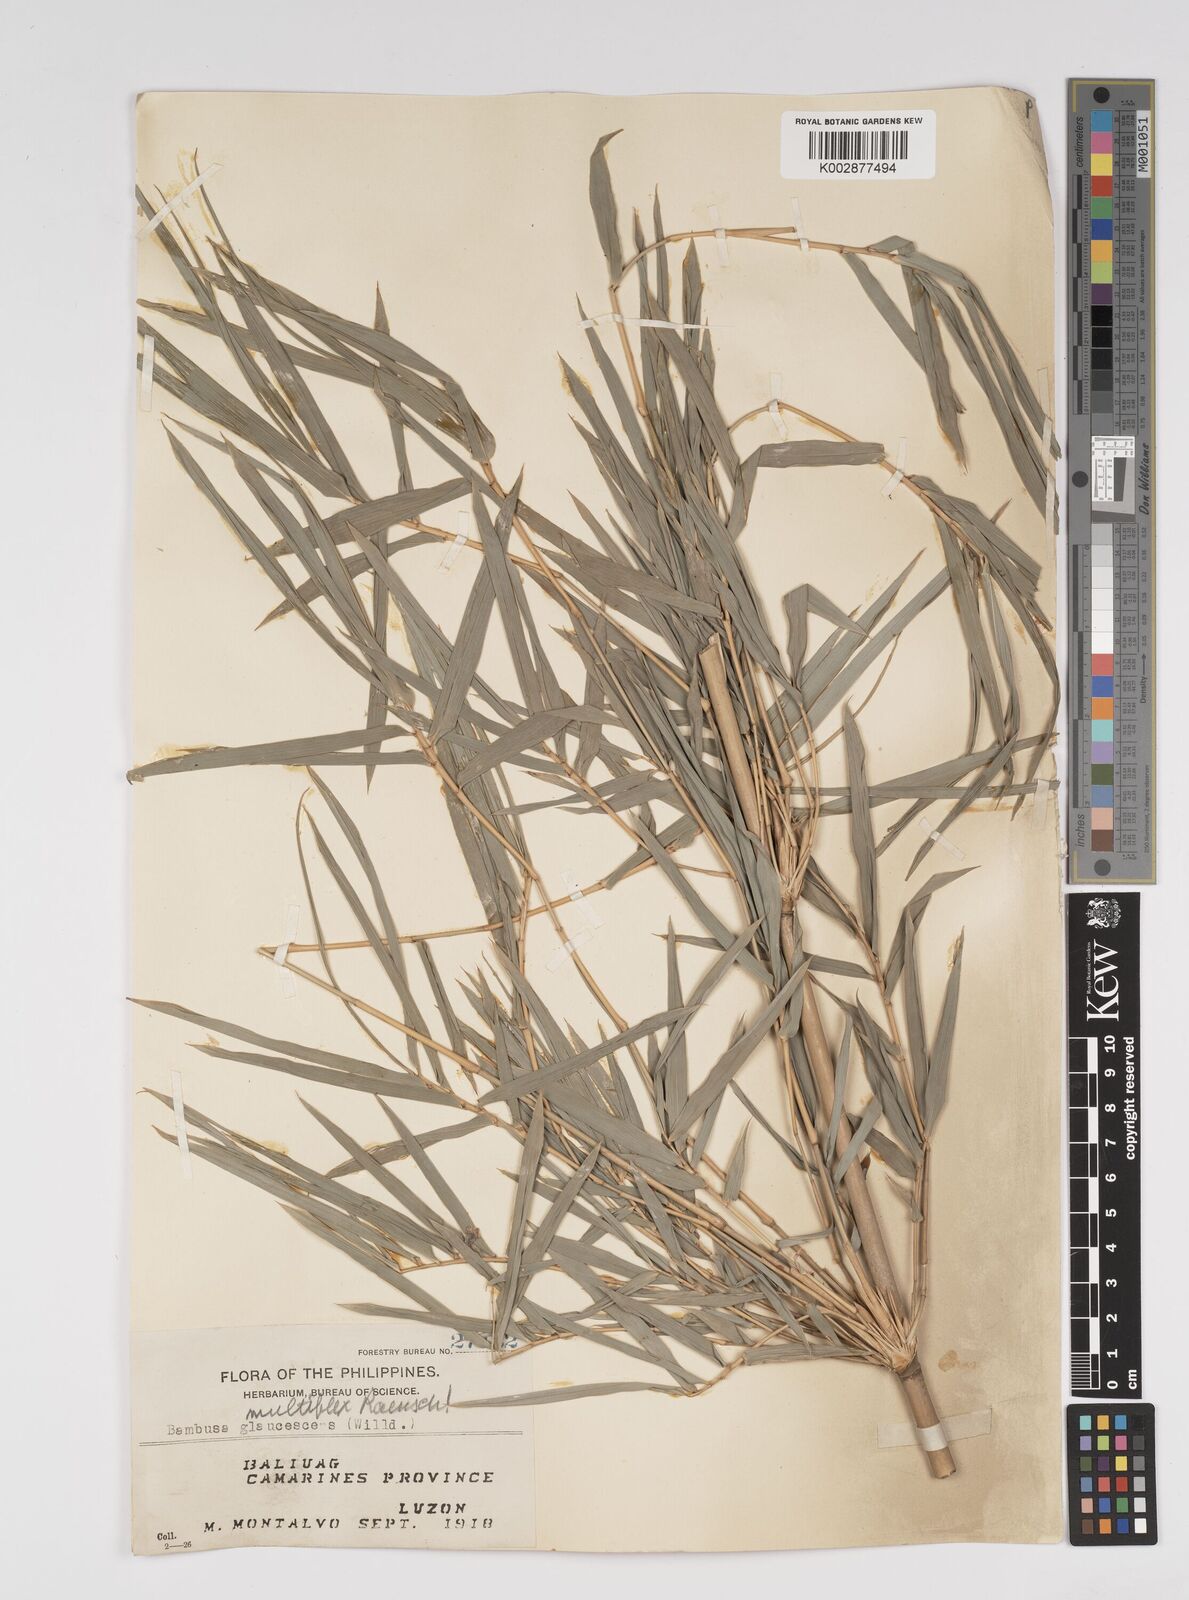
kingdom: Plantae
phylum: Tracheophyta
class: Liliopsida
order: Poales
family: Poaceae
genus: Bambusa
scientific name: Bambusa multiplex
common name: Hedge bamboo
